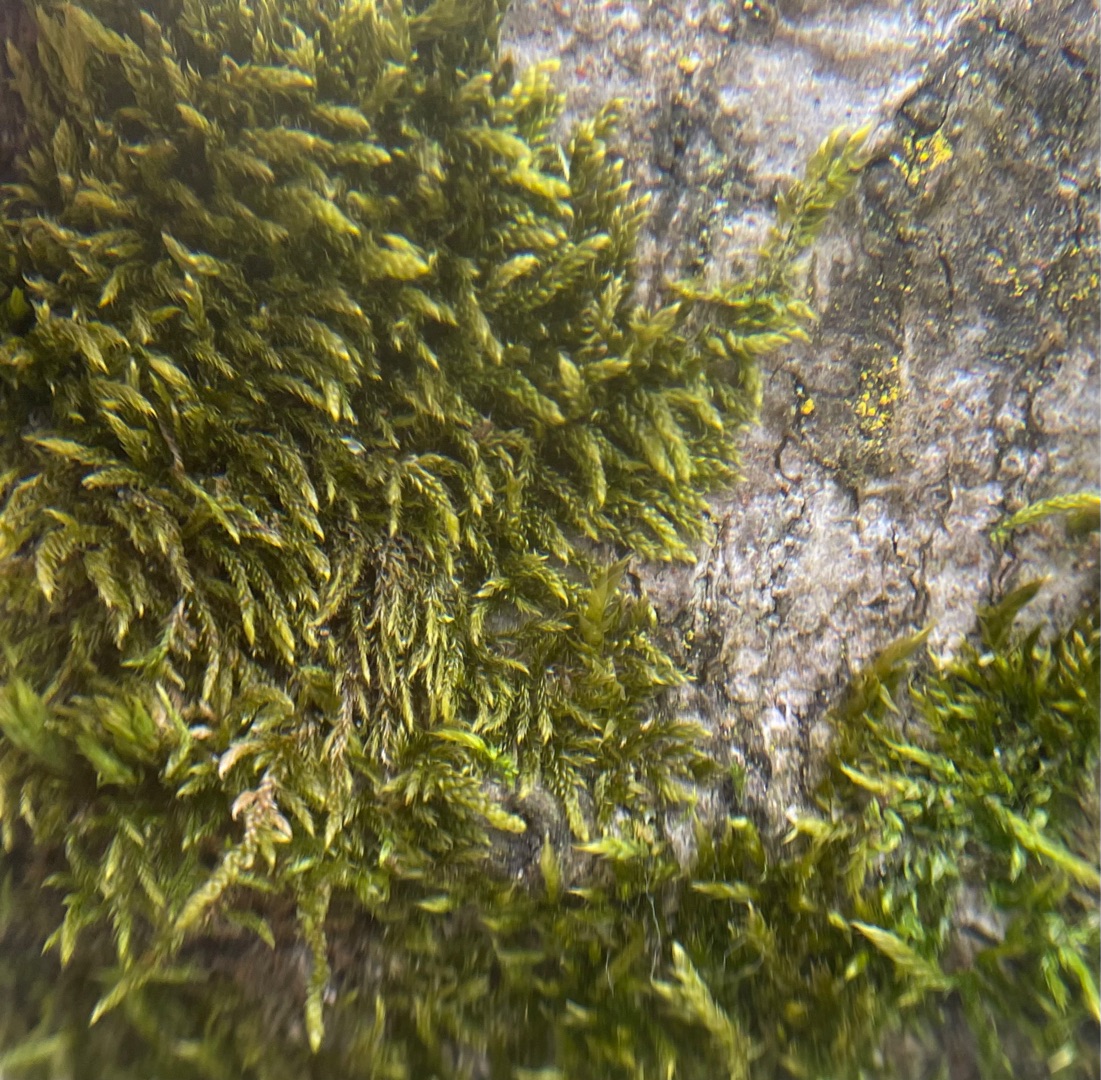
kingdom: Plantae
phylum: Bryophyta
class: Bryopsida
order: Hypnales
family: Hypnaceae
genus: Hypnum
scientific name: Hypnum cupressiforme
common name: Almindelig cypresmos
